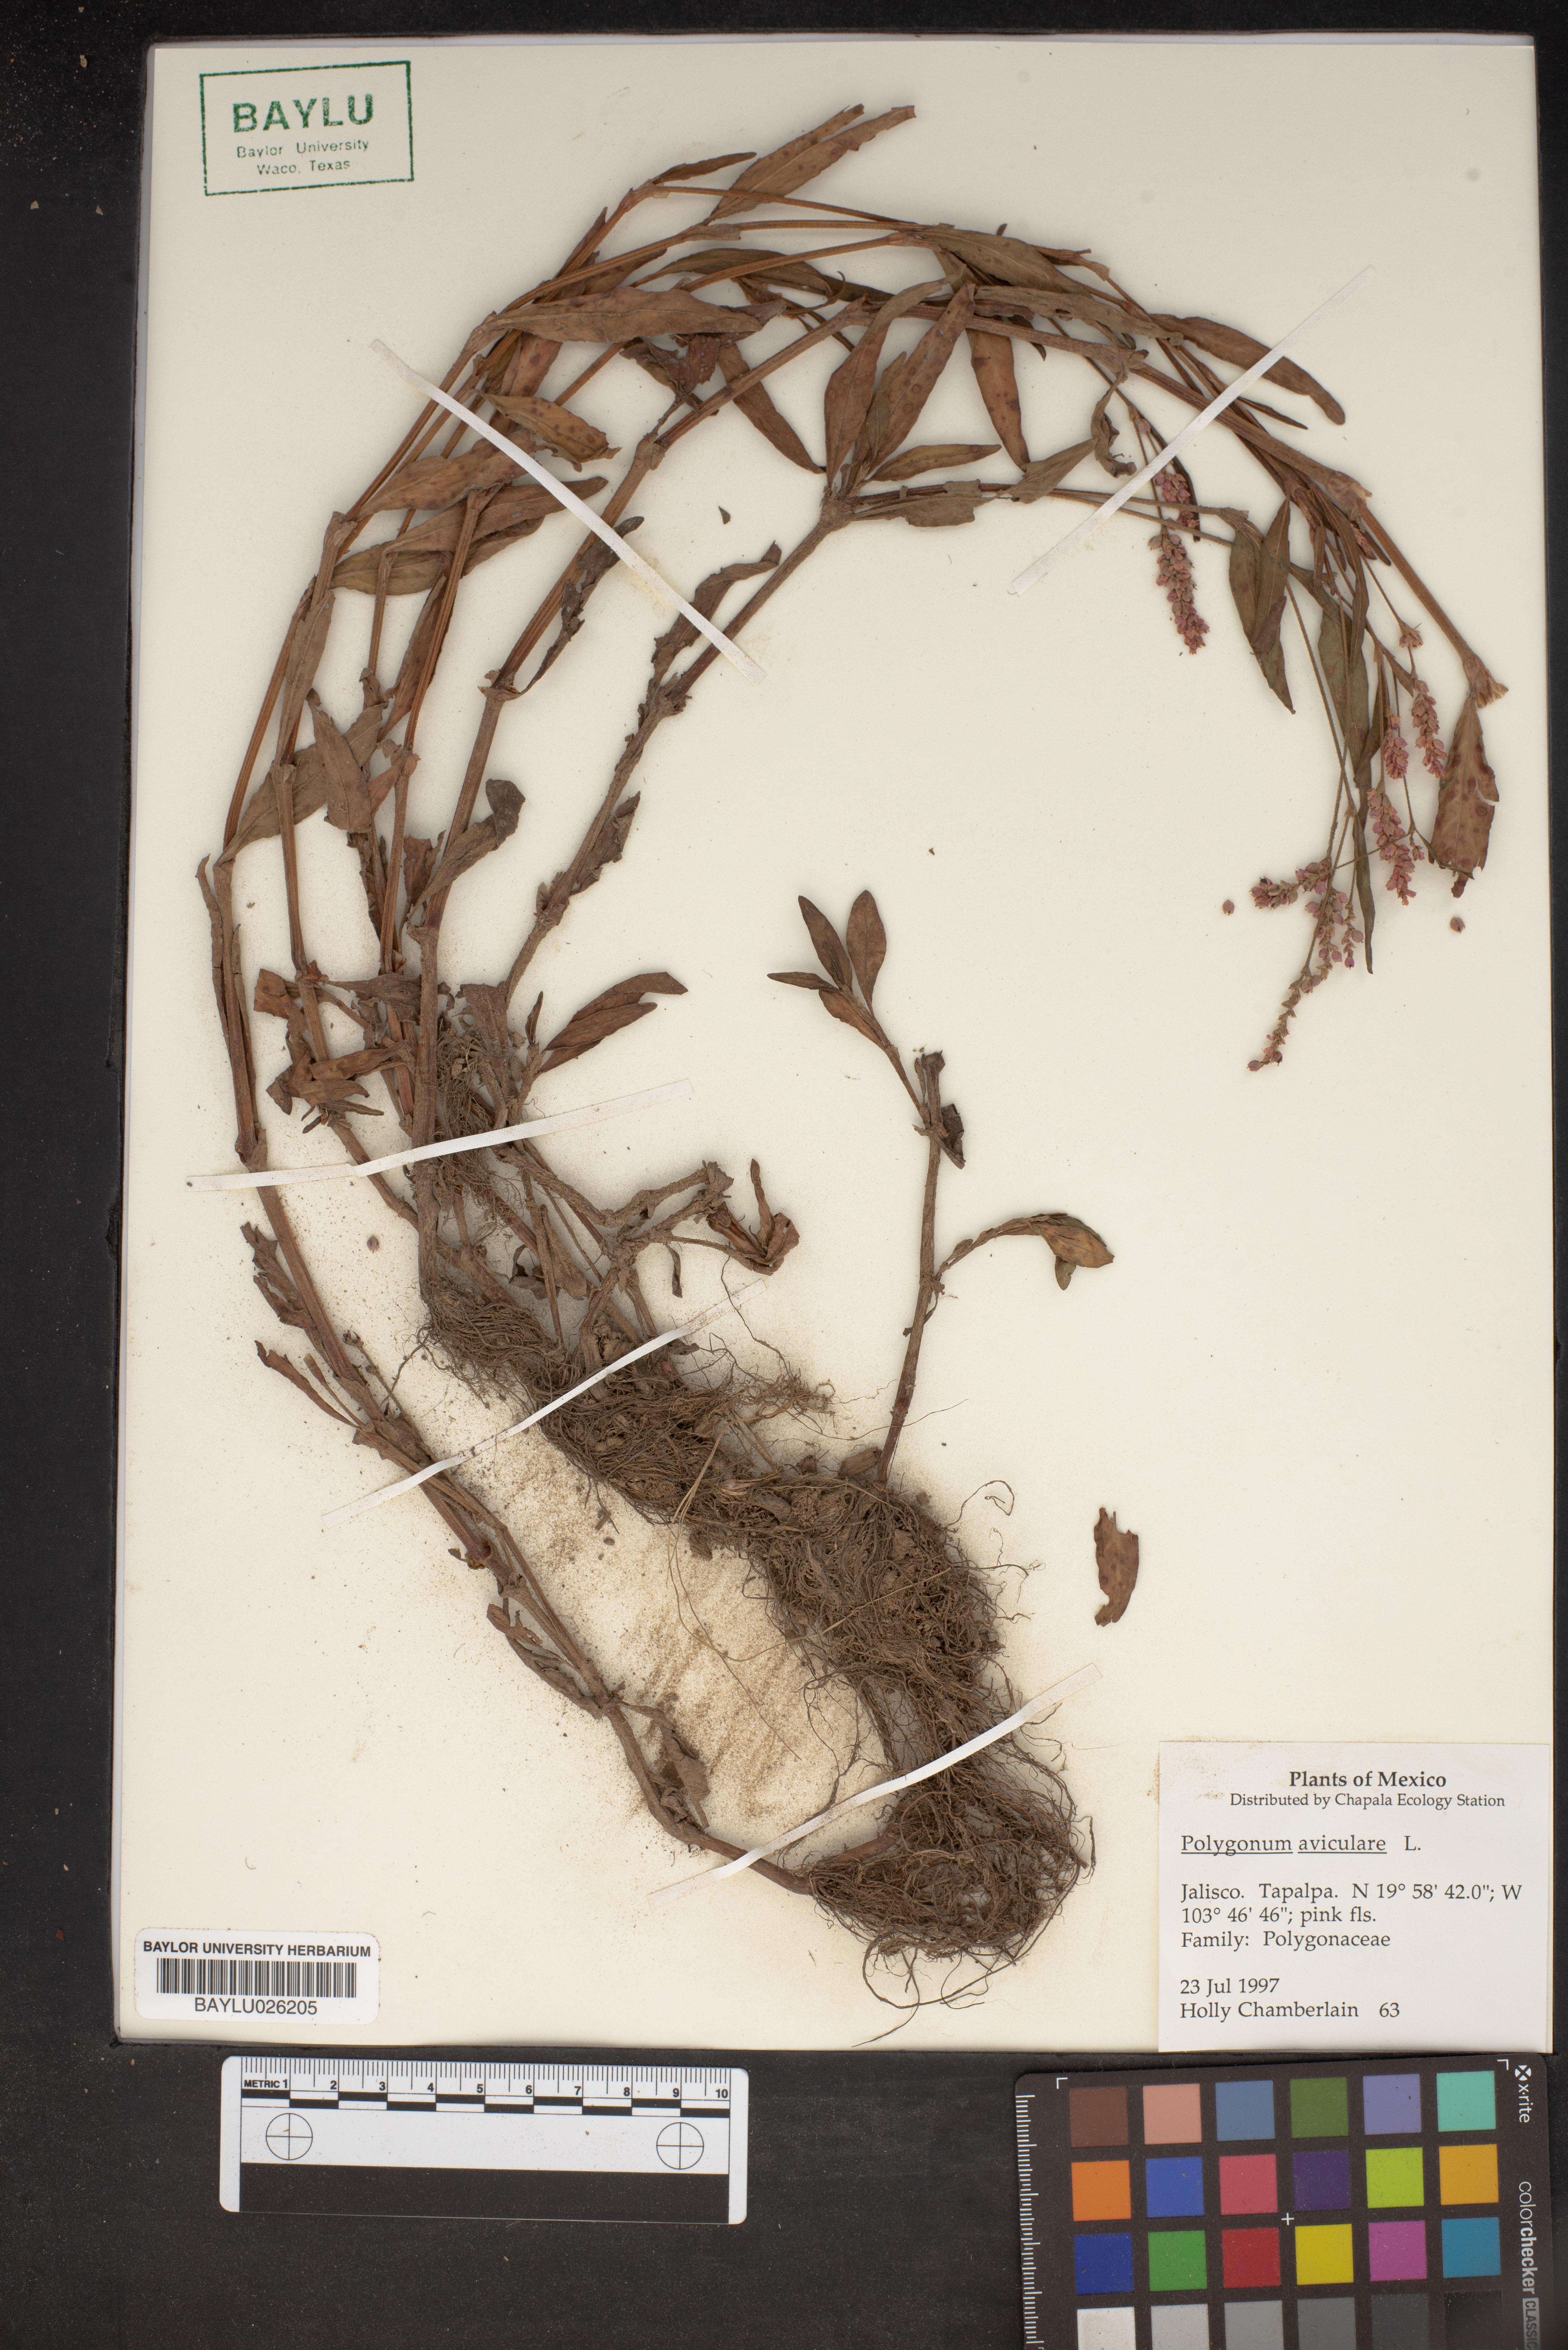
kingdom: Plantae
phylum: Tracheophyta
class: Magnoliopsida
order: Caryophyllales
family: Polygonaceae
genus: Polygonum
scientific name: Polygonum aviculare
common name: Prostrate knotweed
